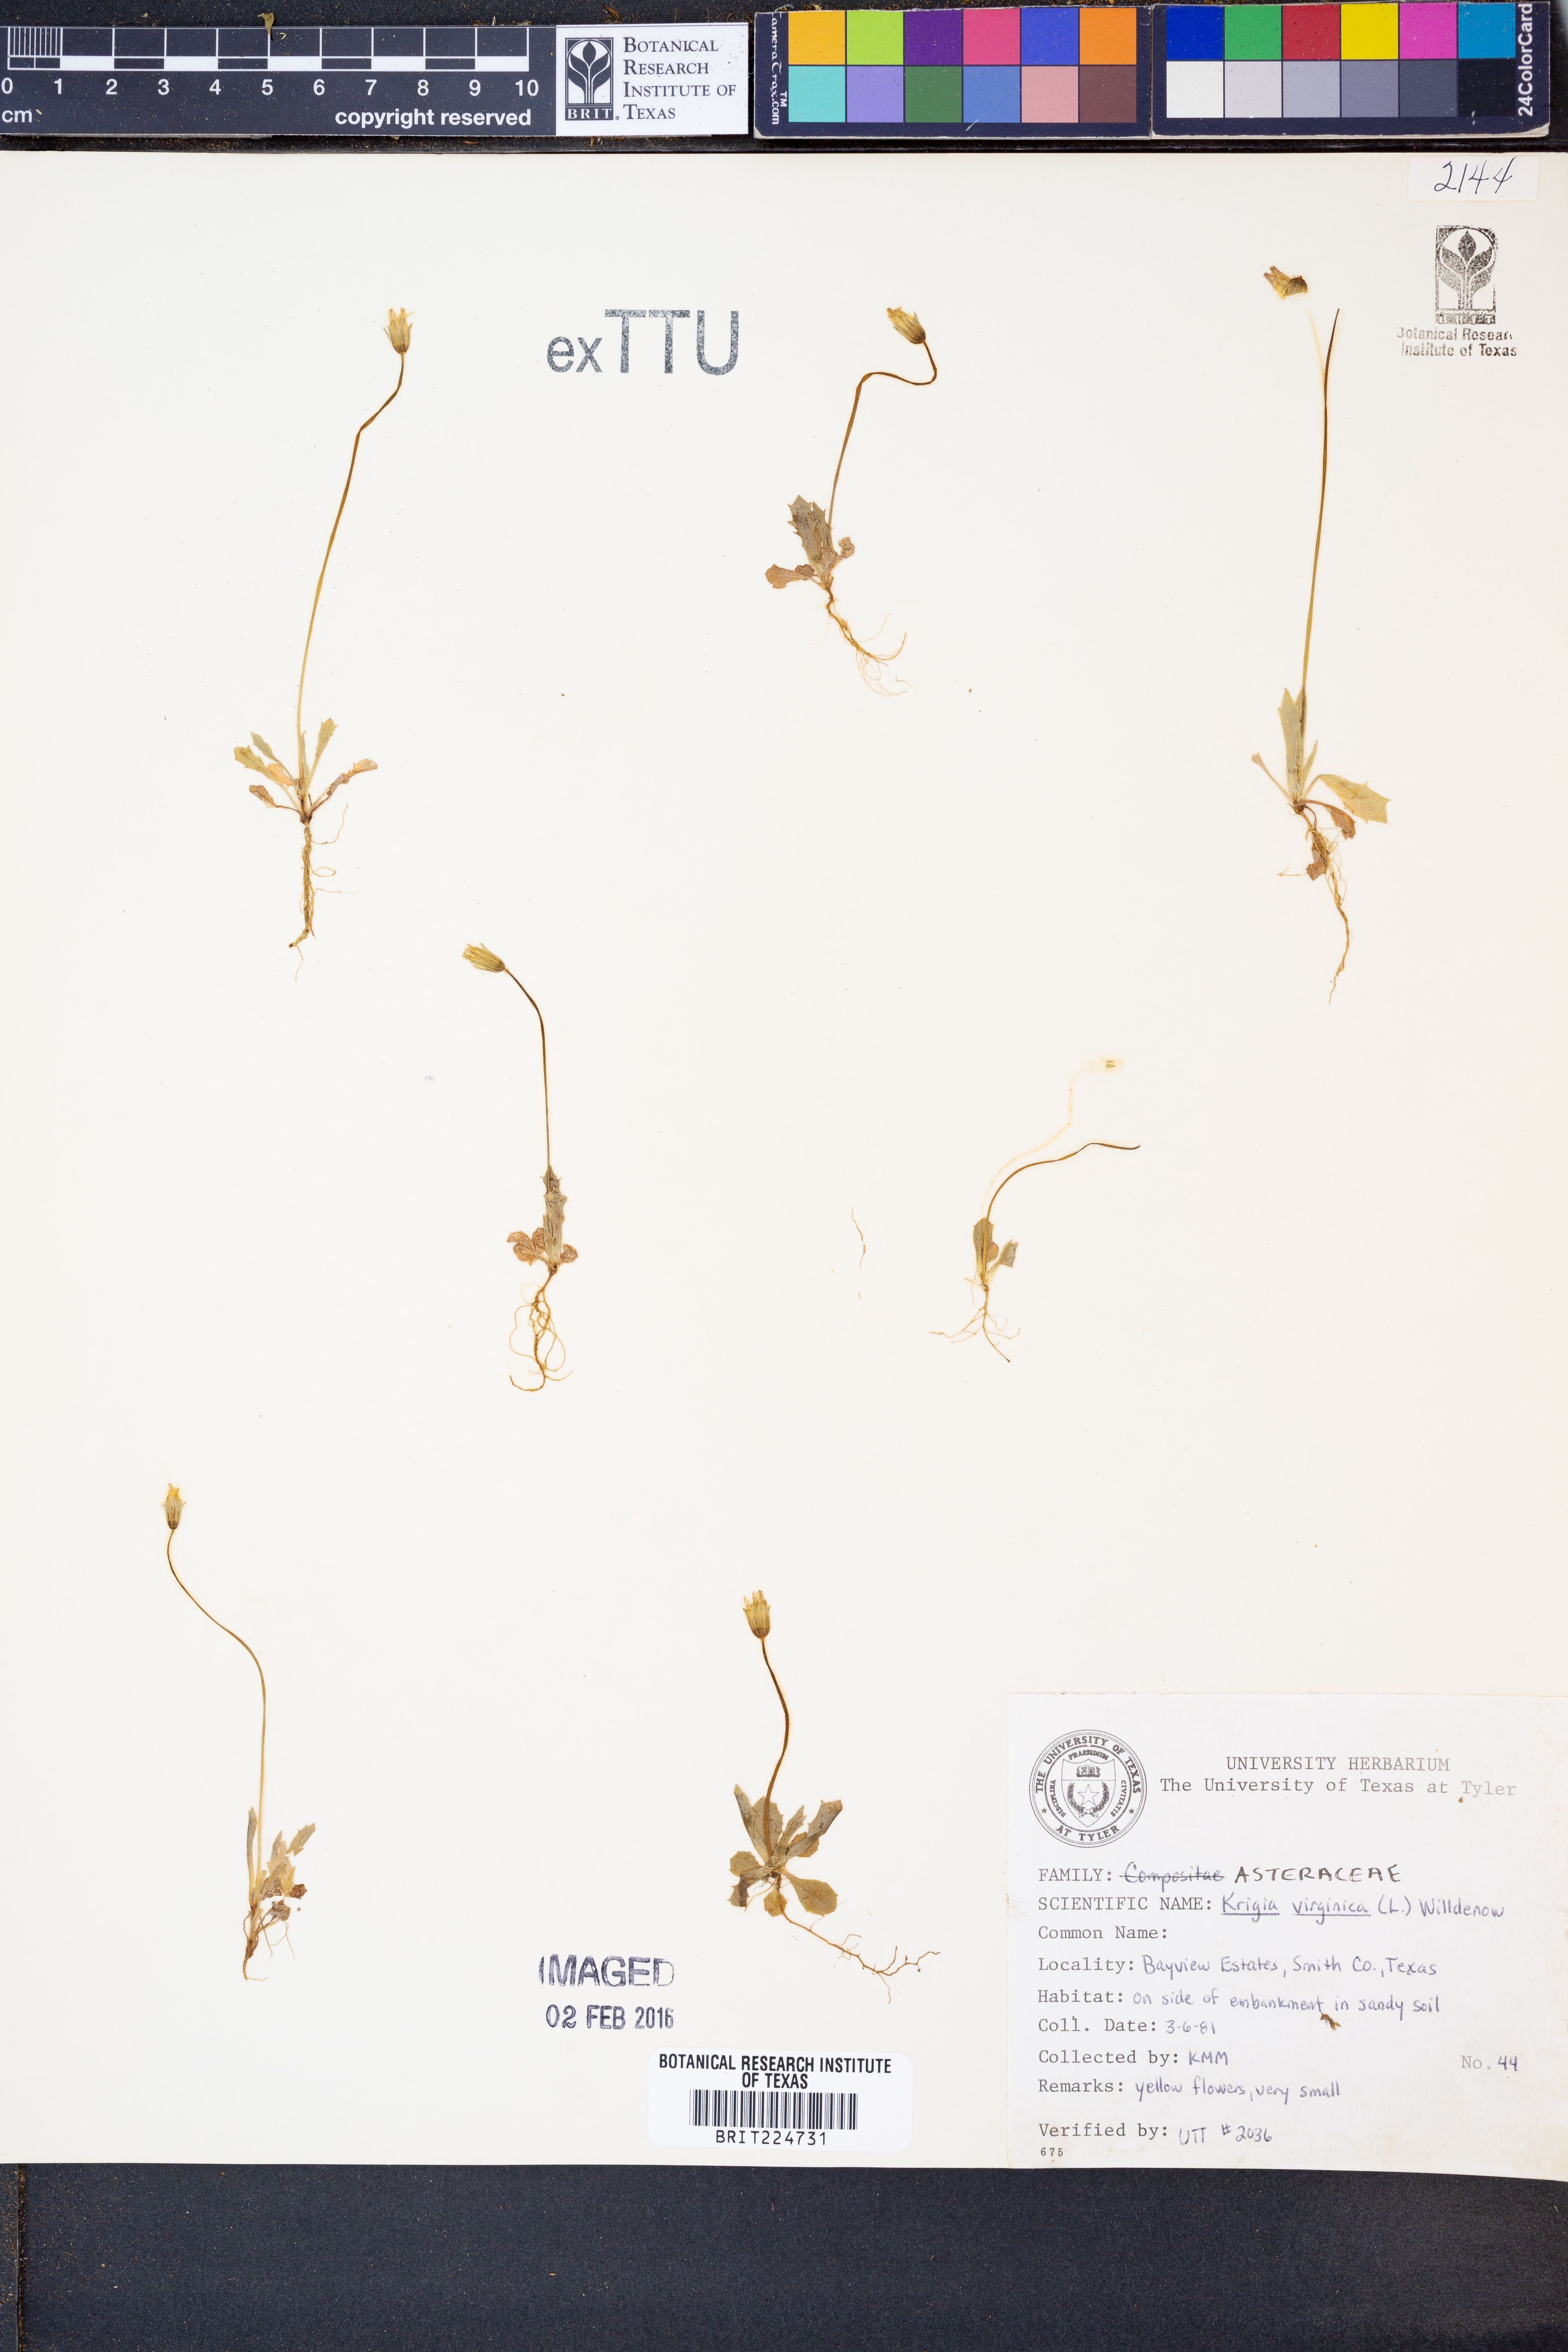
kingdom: Plantae
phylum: Tracheophyta
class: Magnoliopsida
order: Asterales
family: Asteraceae
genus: Krigia
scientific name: Krigia virginica
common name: Virginia dwarf-dandelion
